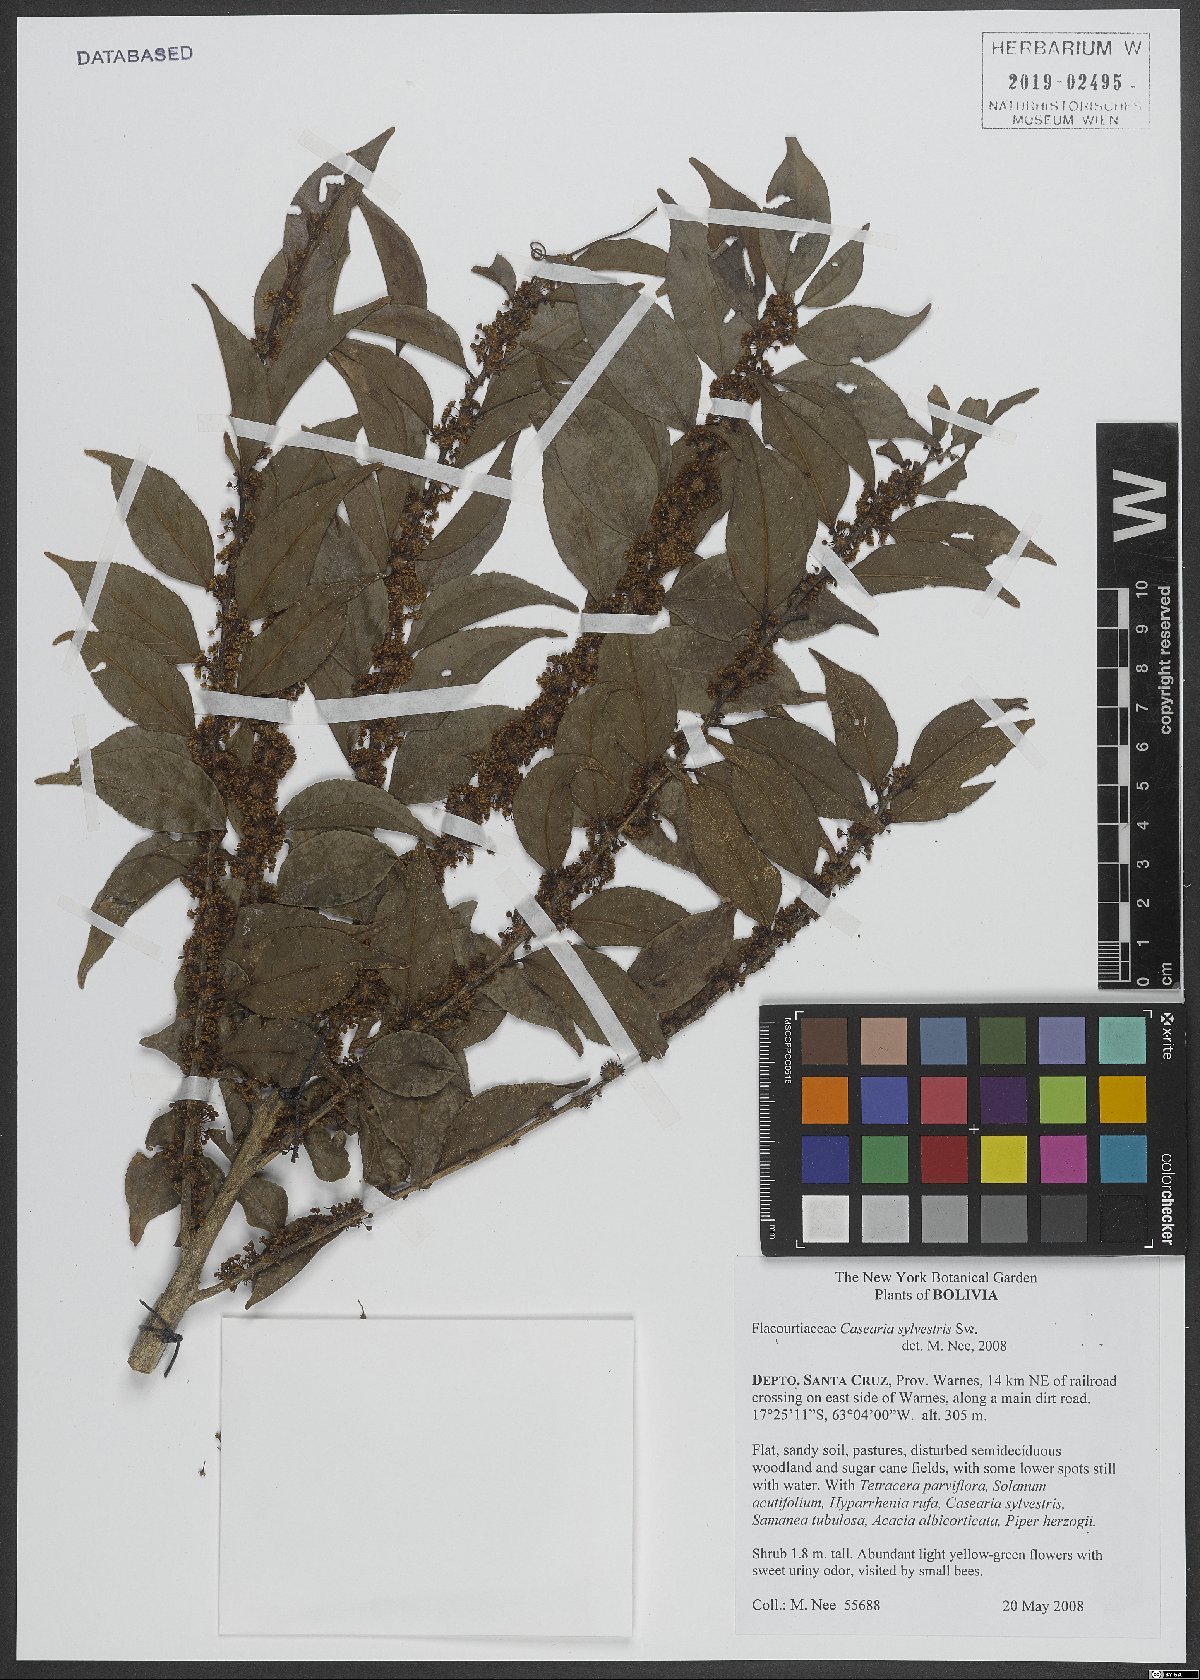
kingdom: Plantae
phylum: Tracheophyta
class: Magnoliopsida
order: Malpighiales
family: Salicaceae
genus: Casearia
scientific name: Casearia sylvestris
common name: Wild sage
